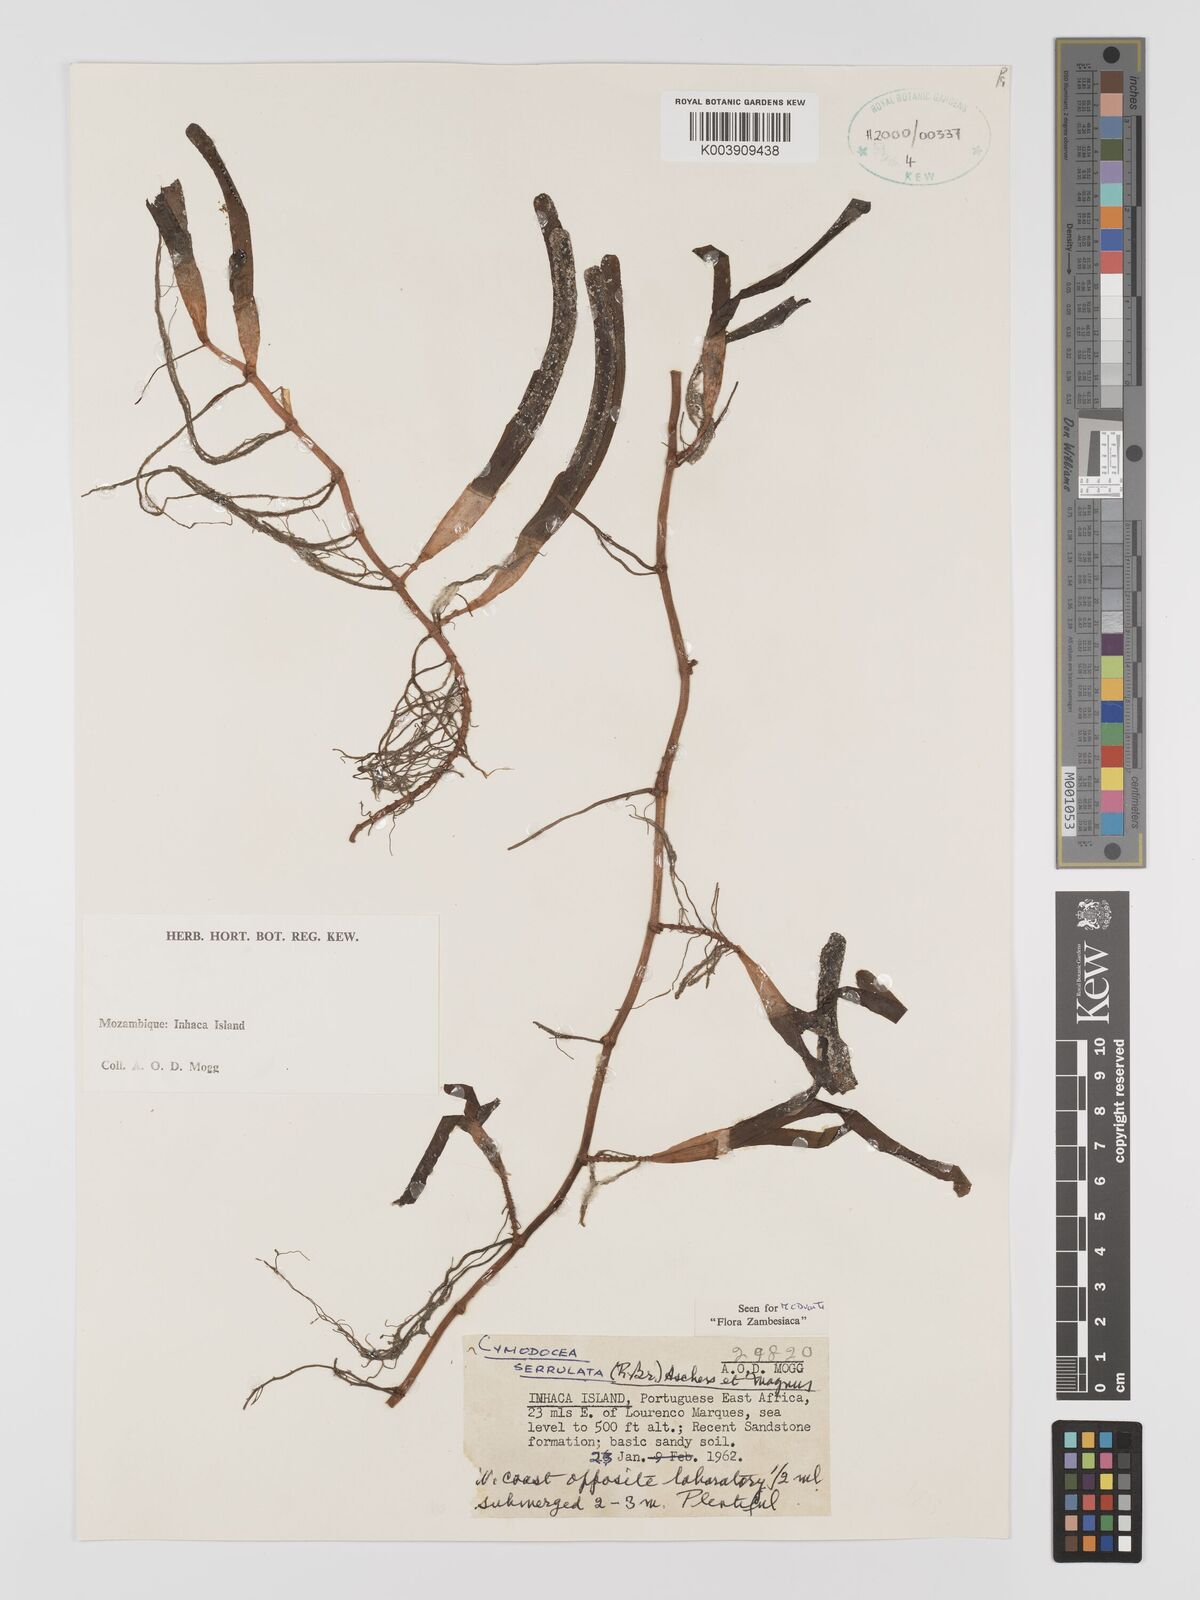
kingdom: Plantae
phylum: Tracheophyta
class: Liliopsida
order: Alismatales
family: Cymodoceaceae
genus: Oceana
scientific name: Oceana serrulata
